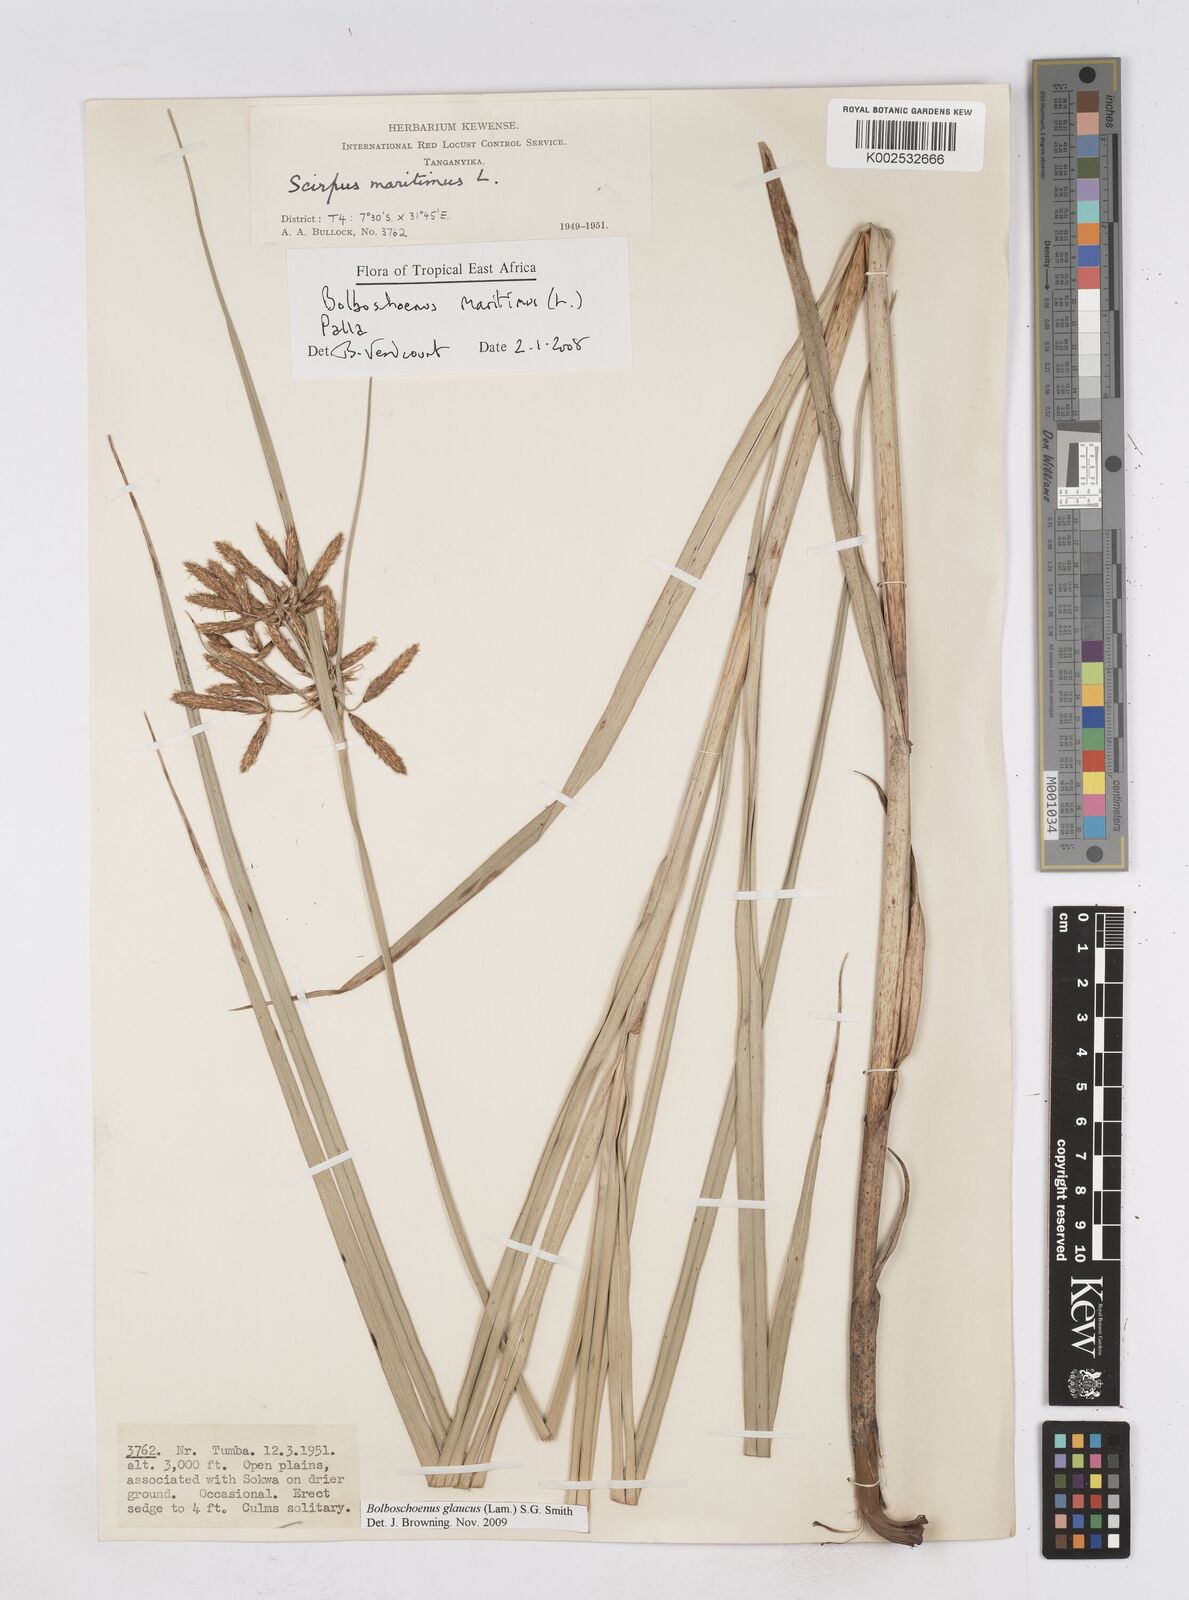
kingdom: Plantae
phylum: Tracheophyta
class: Liliopsida
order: Poales
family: Cyperaceae
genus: Bolboschoenus
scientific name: Bolboschoenus glaucus
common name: Tuberous bulrush
